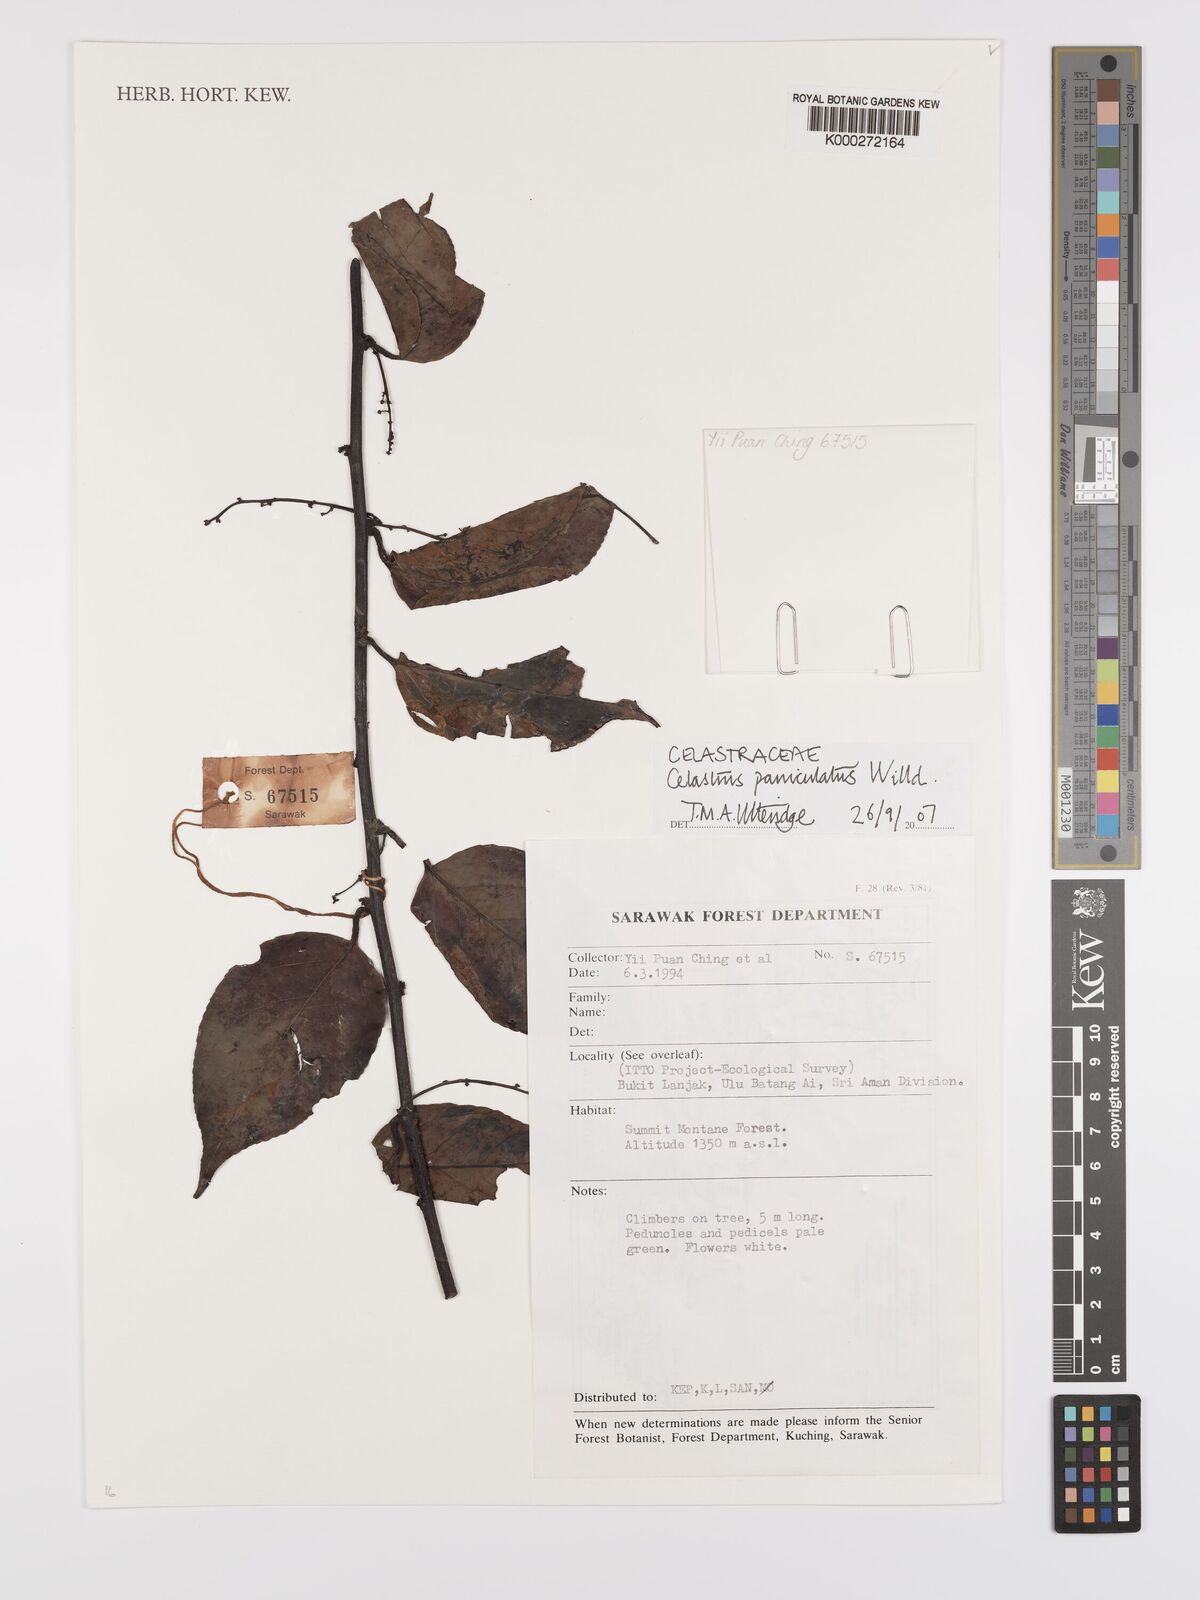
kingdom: Plantae
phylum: Tracheophyta
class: Magnoliopsida
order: Celastrales
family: Celastraceae
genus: Celastrus
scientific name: Celastrus paniculatus
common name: Oriental bittersweet; staff vine
